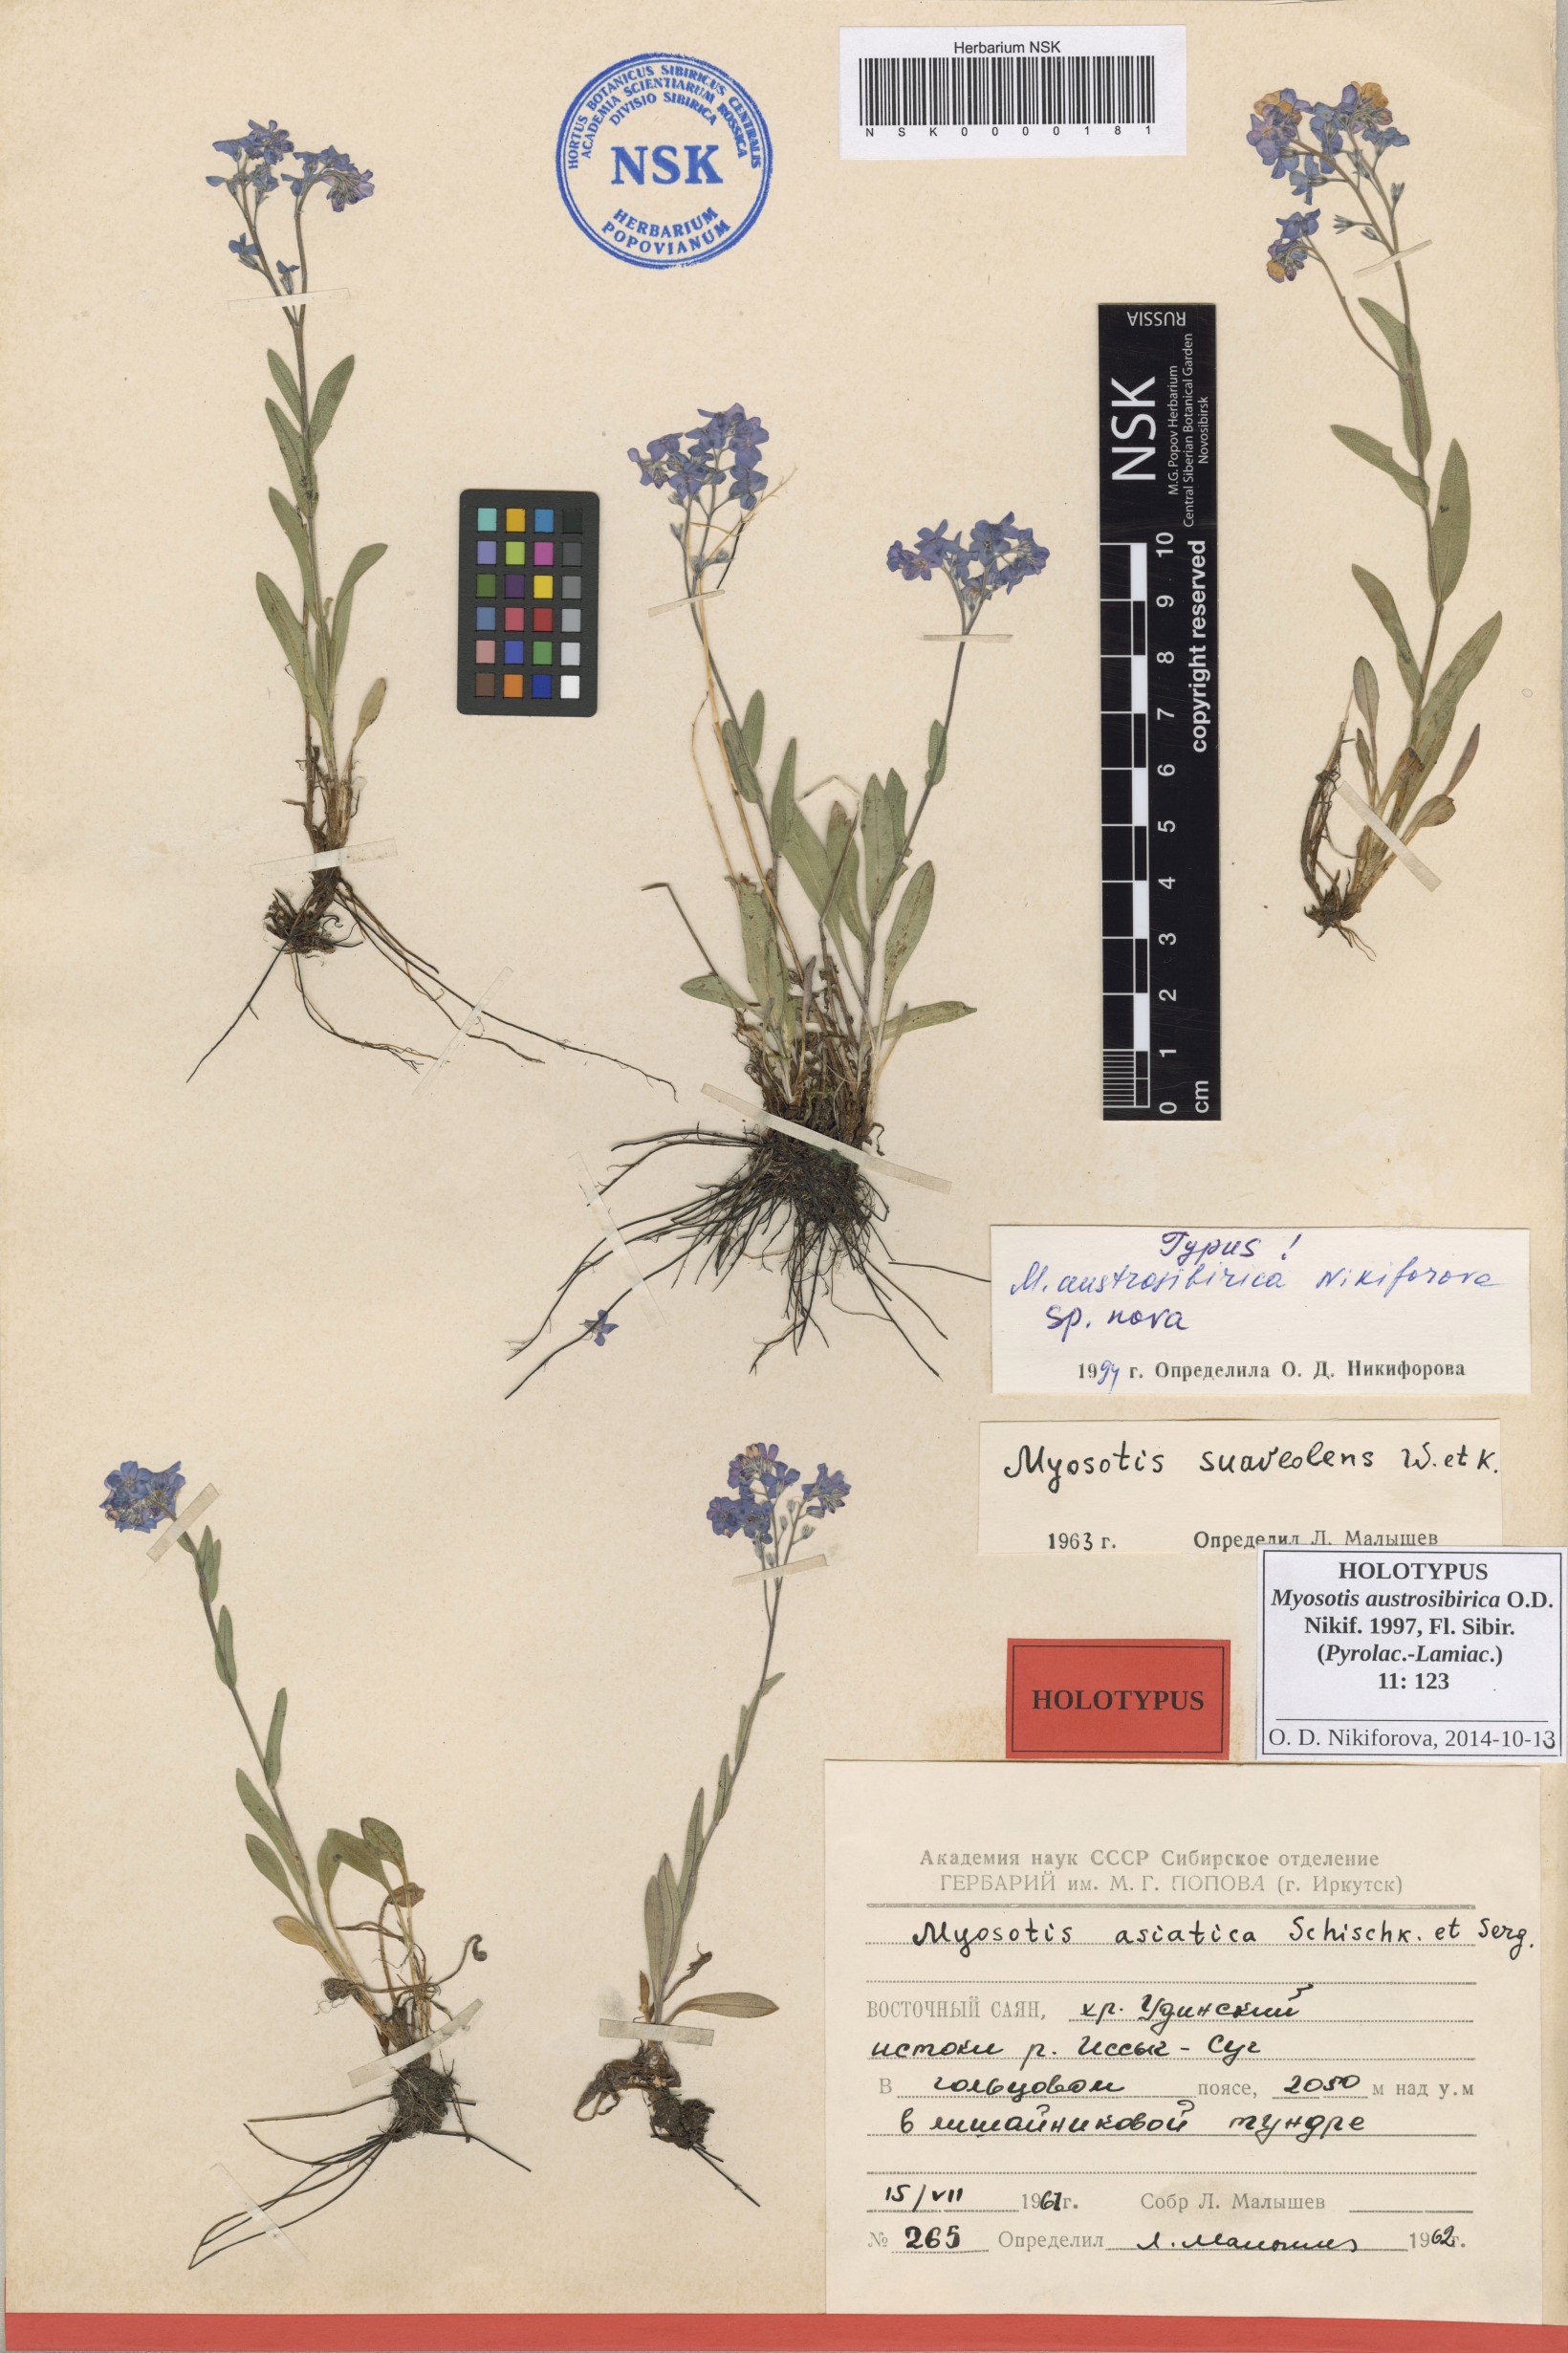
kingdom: Plantae
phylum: Tracheophyta
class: Magnoliopsida
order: Boraginales
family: Boraginaceae
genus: Myosotis
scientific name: Myosotis austrosibirica
